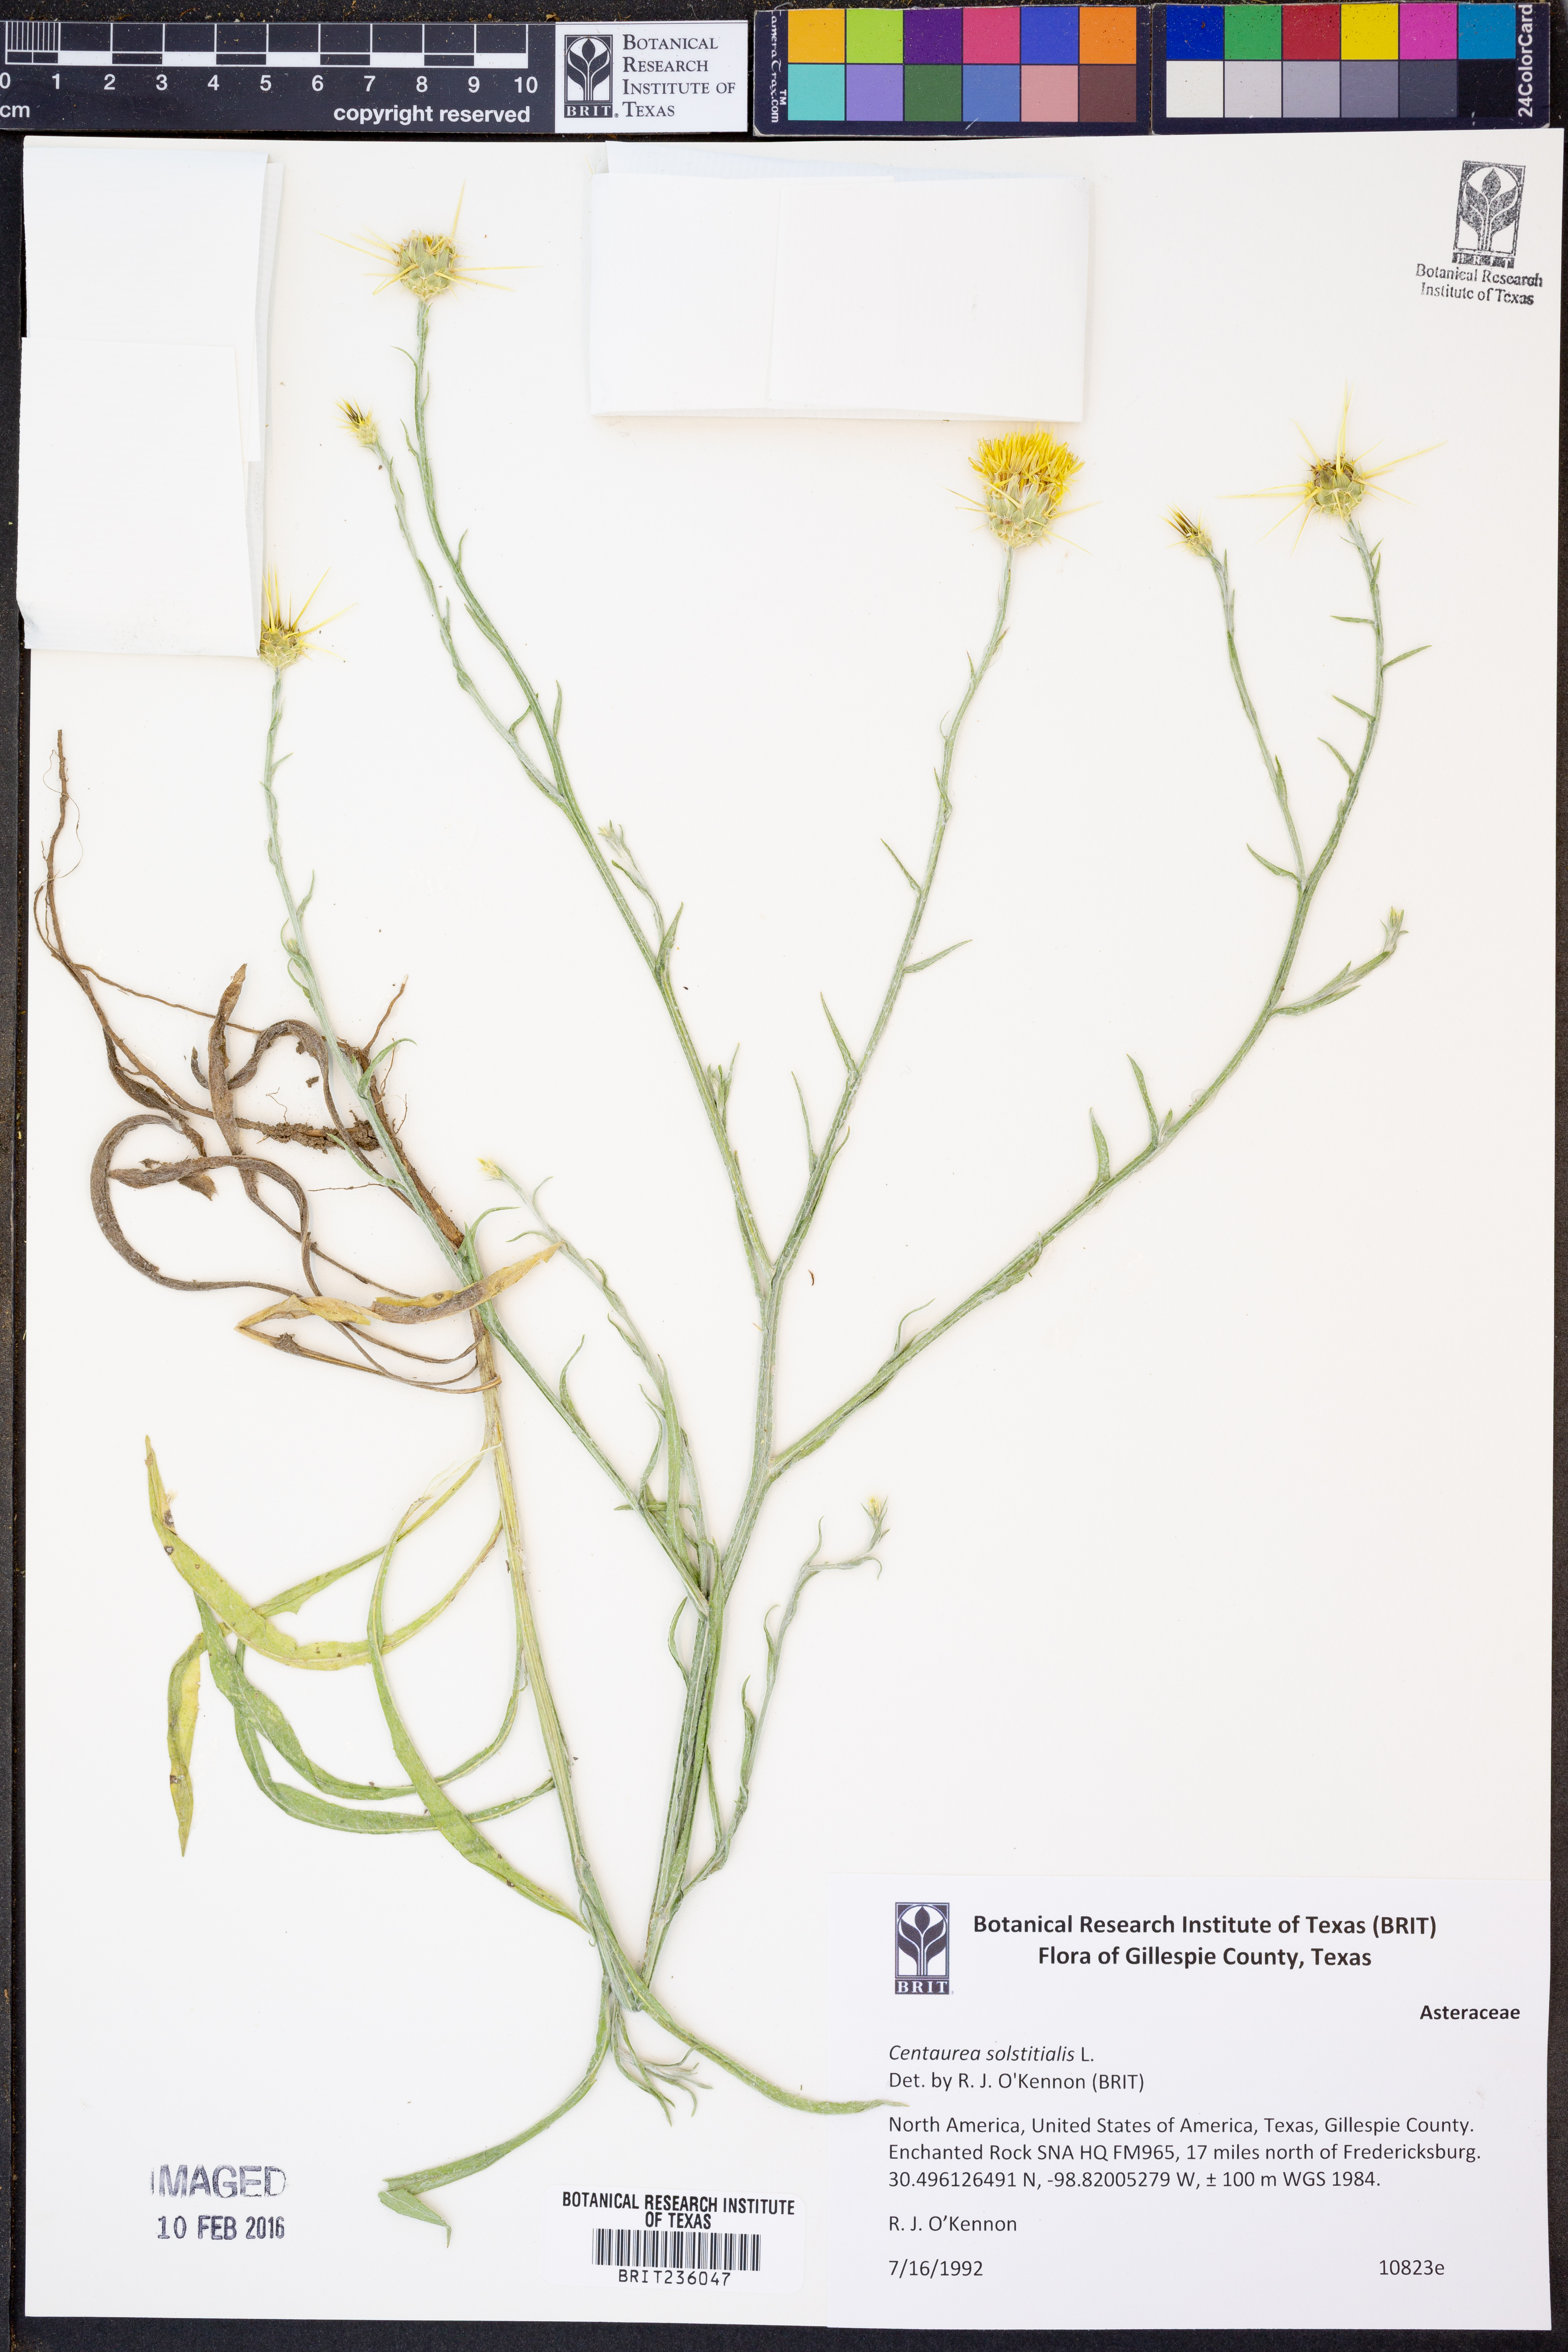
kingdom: Plantae
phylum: Tracheophyta
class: Magnoliopsida
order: Asterales
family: Asteraceae
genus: Centaurea
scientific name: Centaurea solstitialis
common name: Yellow star-thistle
